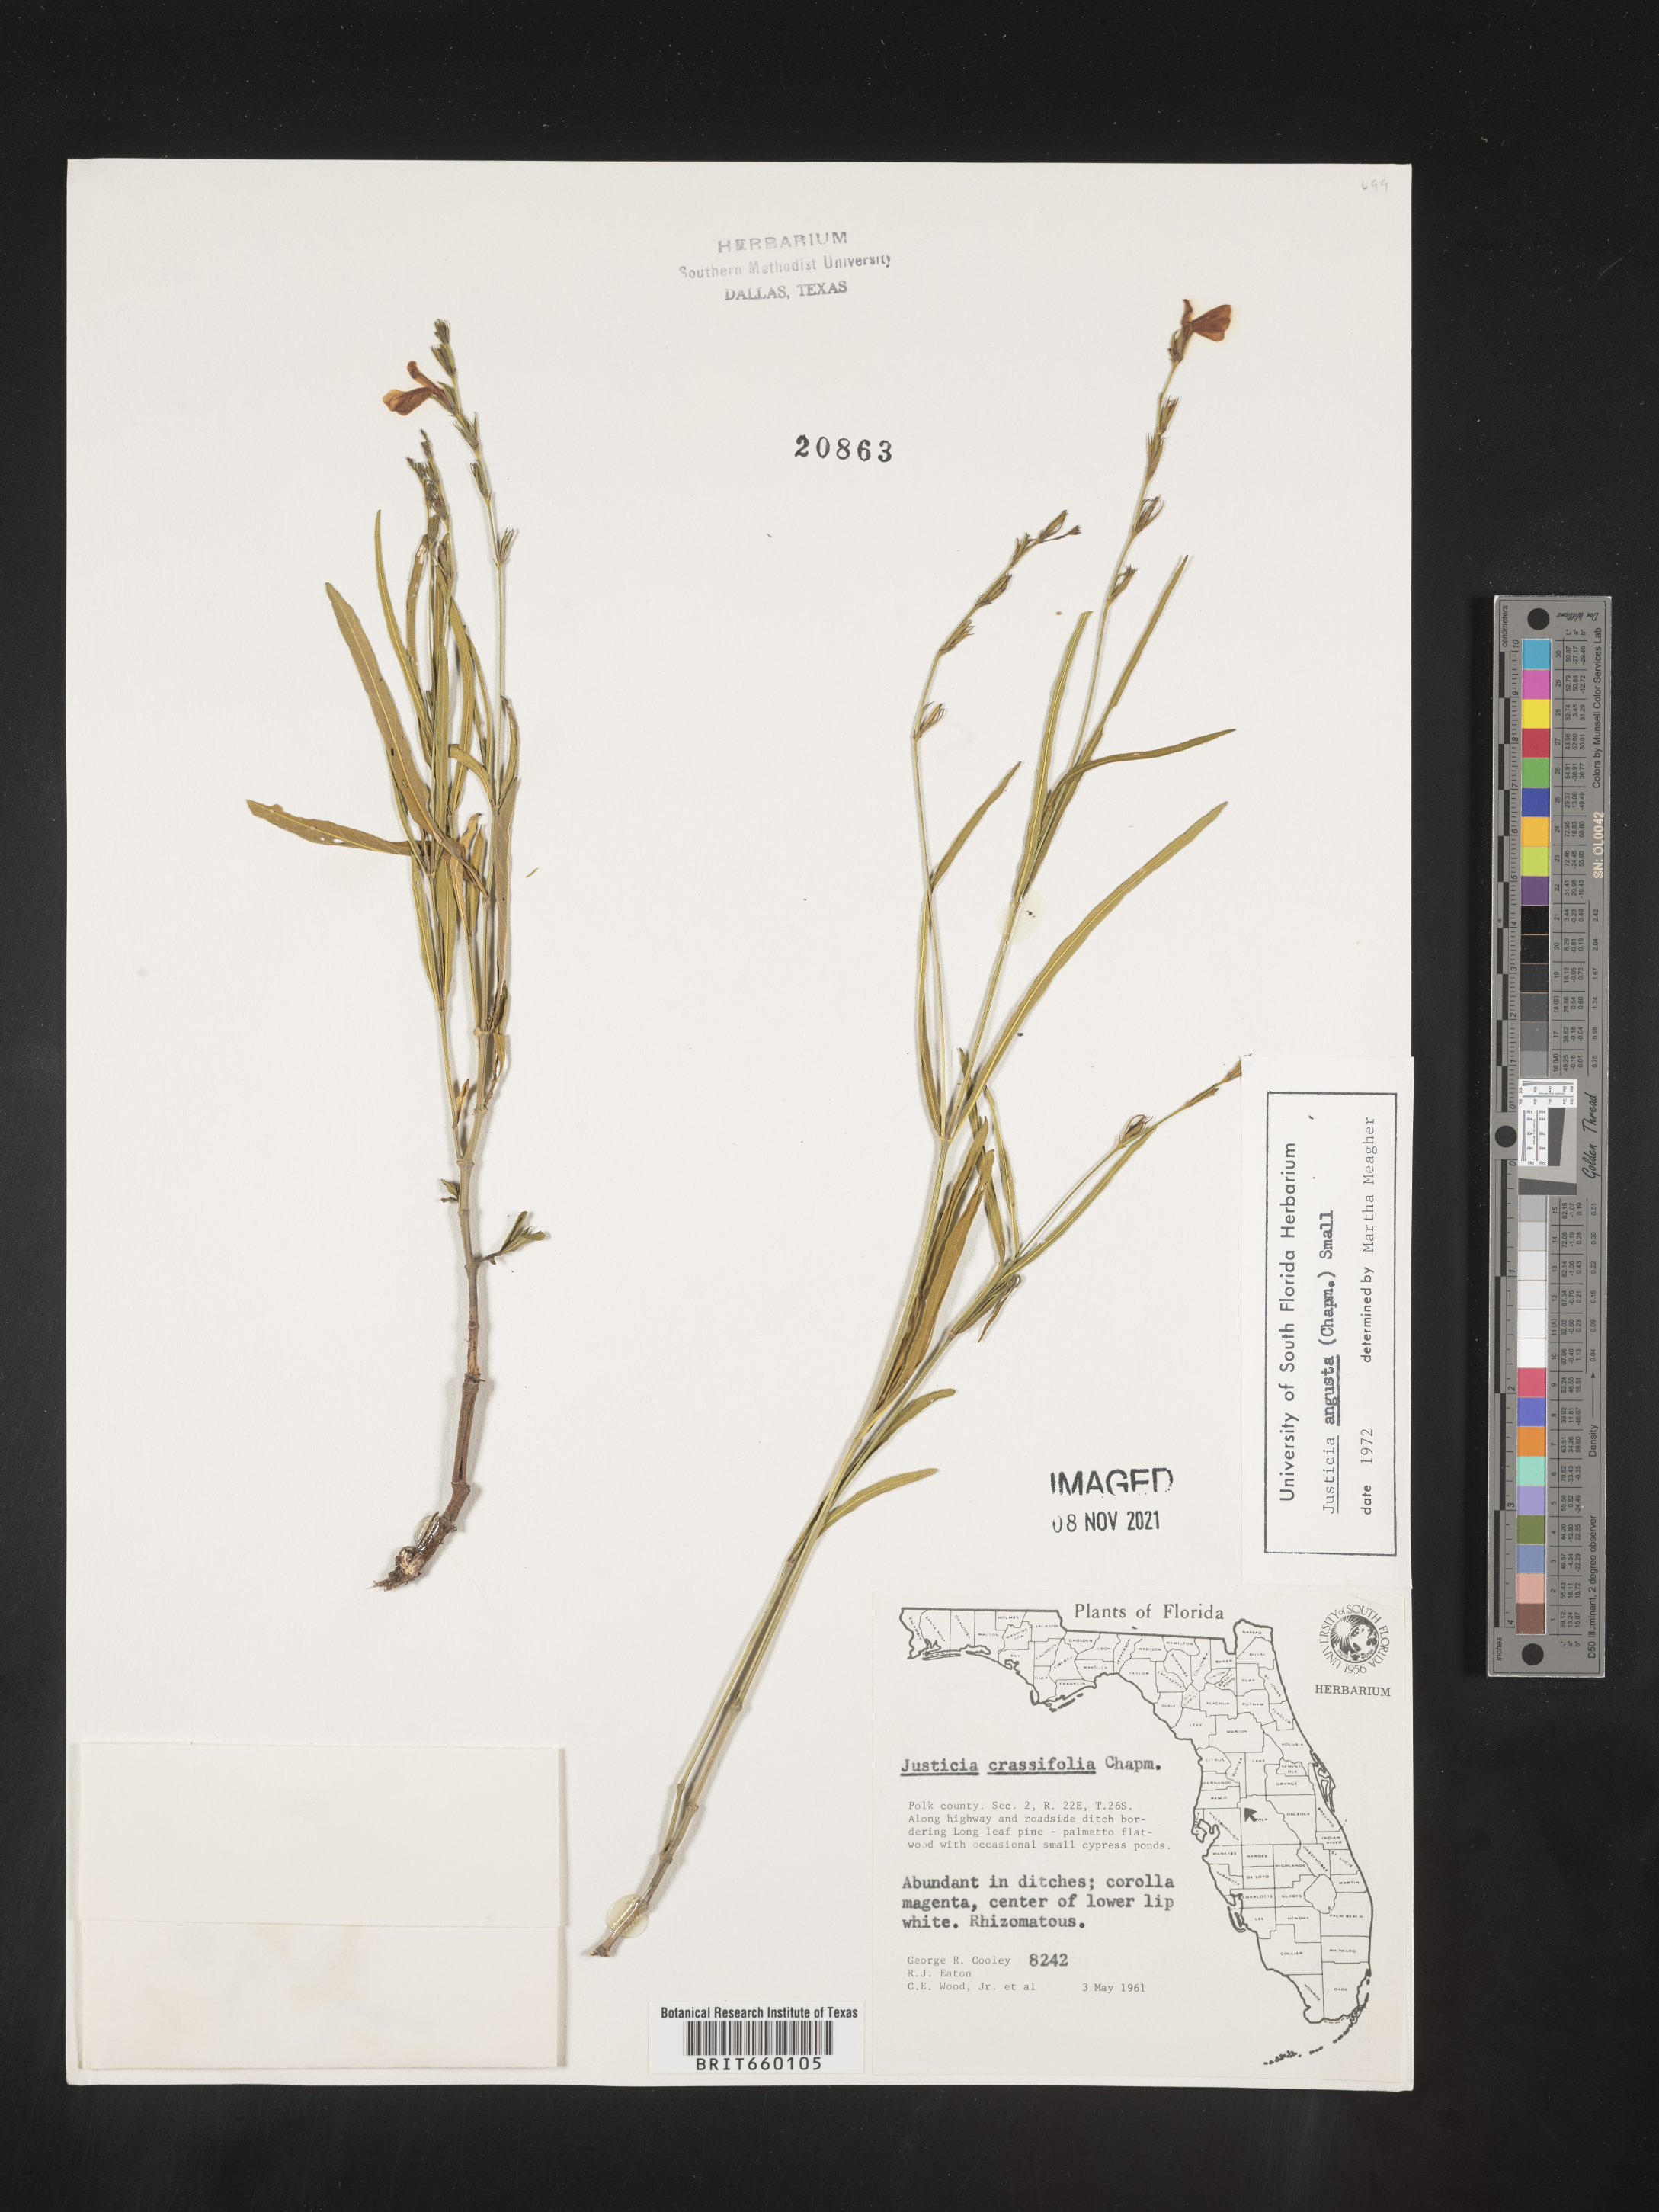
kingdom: Plantae
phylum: Tracheophyta
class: Magnoliopsida
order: Lamiales
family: Acanthaceae
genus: Justicia
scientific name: Justicia
